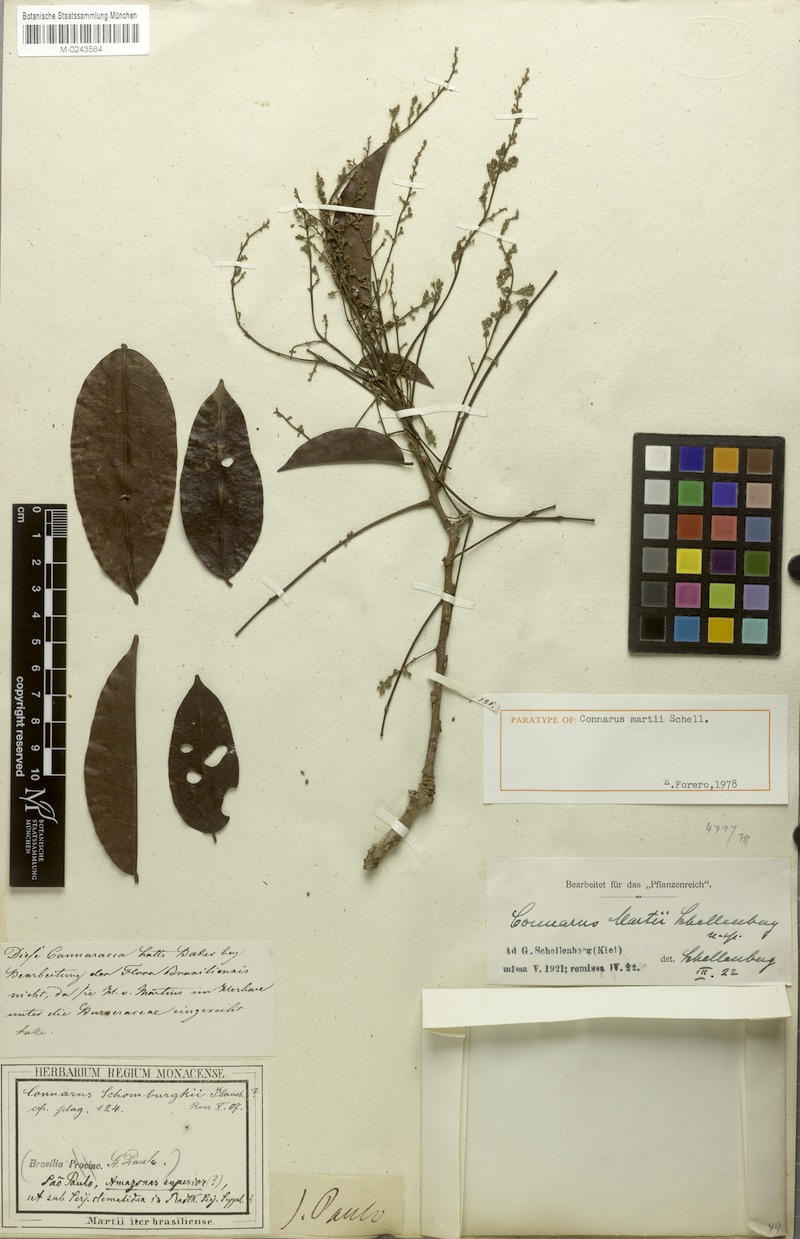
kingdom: Plantae
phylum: Tracheophyta
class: Magnoliopsida
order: Oxalidales
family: Connaraceae
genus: Connarus
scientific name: Connarus martii
